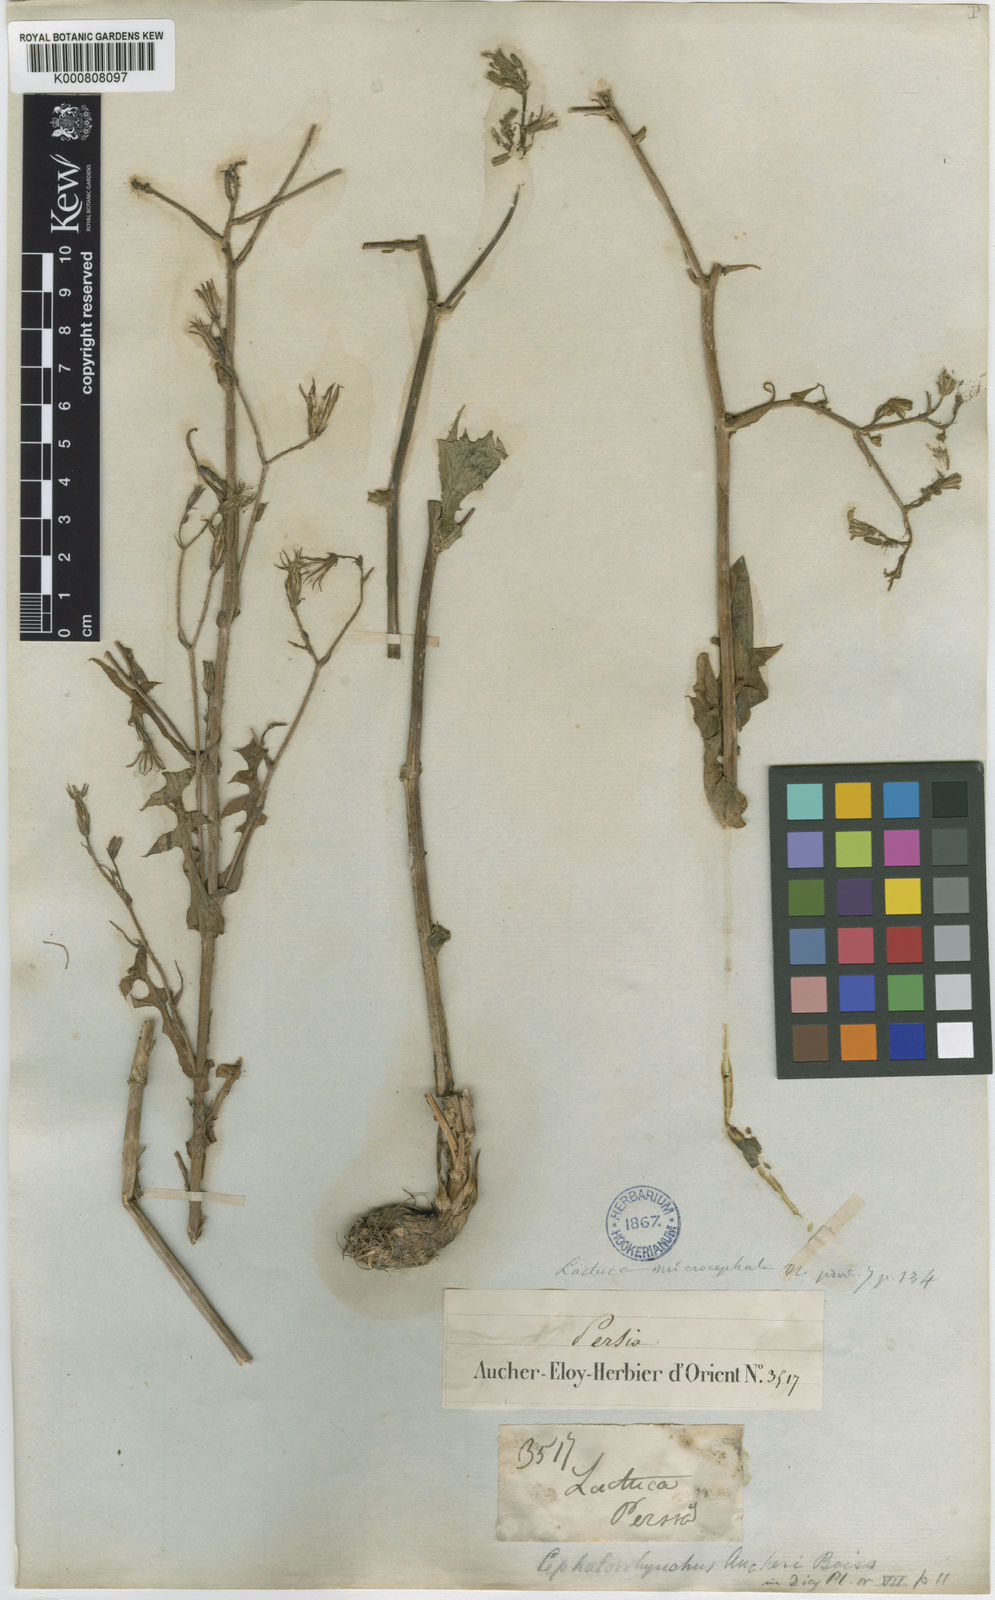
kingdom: Plantae
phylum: Tracheophyta
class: Magnoliopsida
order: Asterales
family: Asteraceae
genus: Cicerbita
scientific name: Cicerbita microcephala
